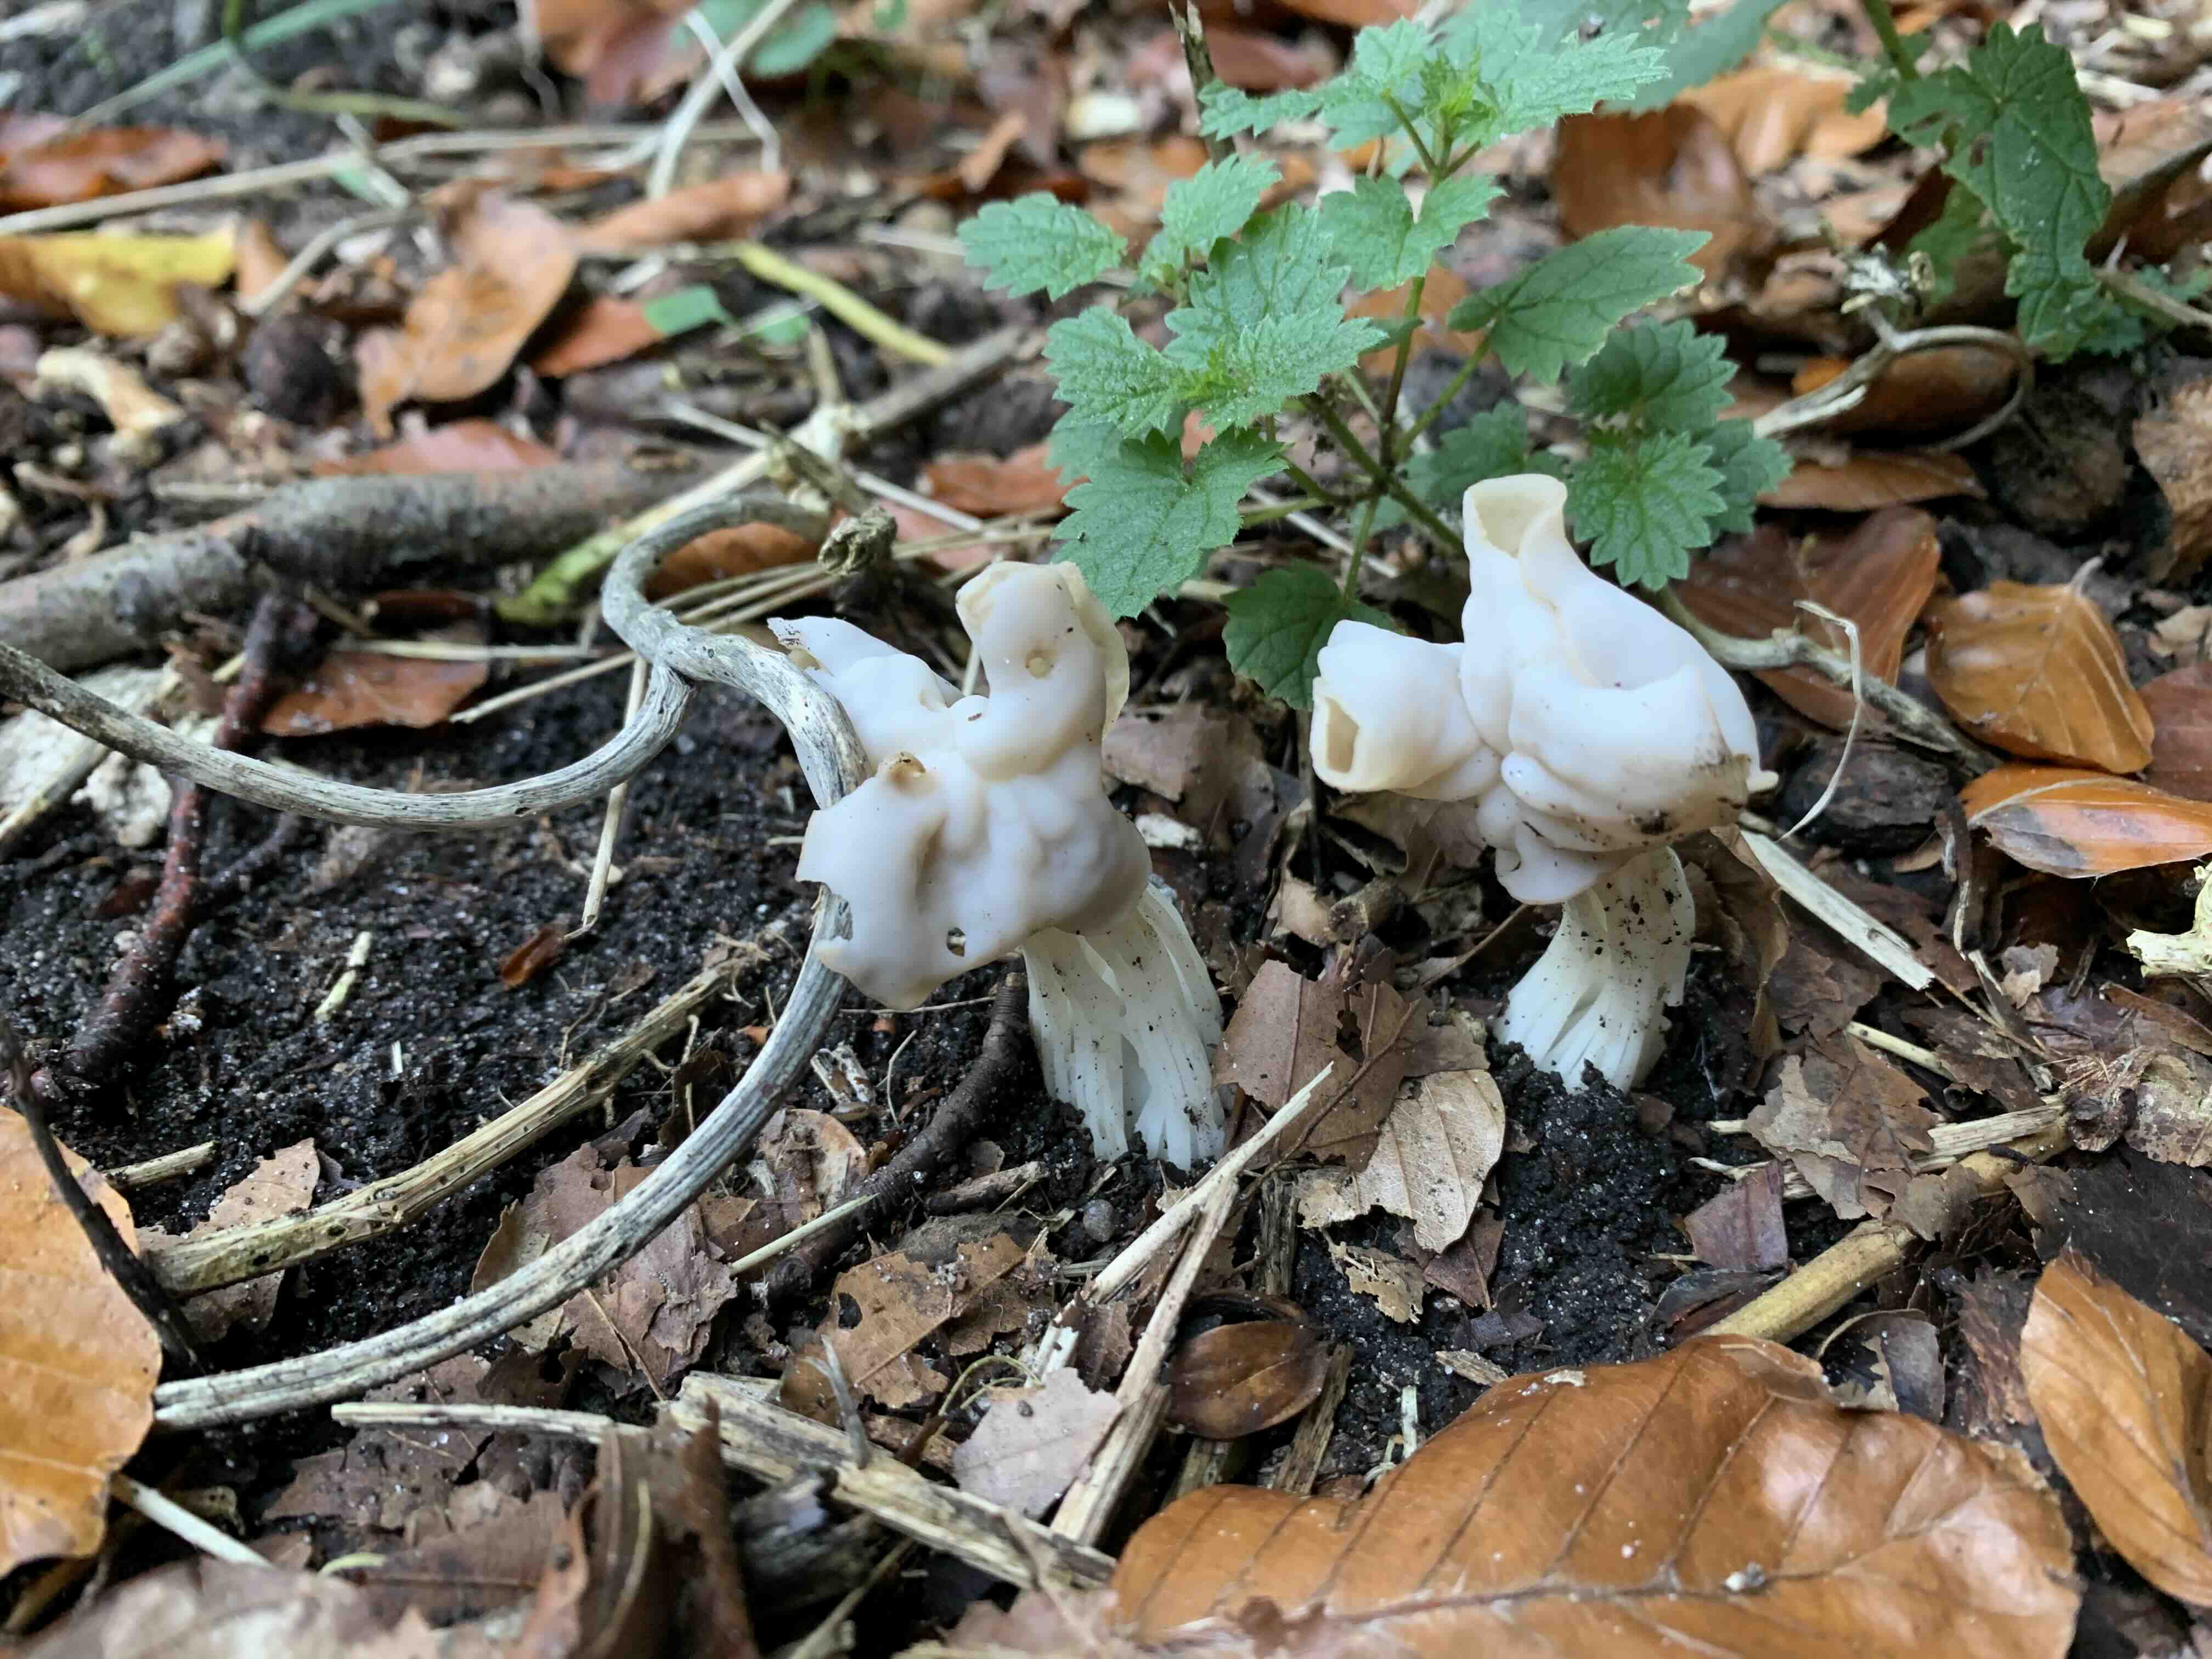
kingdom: Fungi
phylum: Ascomycota
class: Pezizomycetes
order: Pezizales
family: Helvellaceae
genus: Helvella
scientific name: Helvella crispa
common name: kruset foldhat
